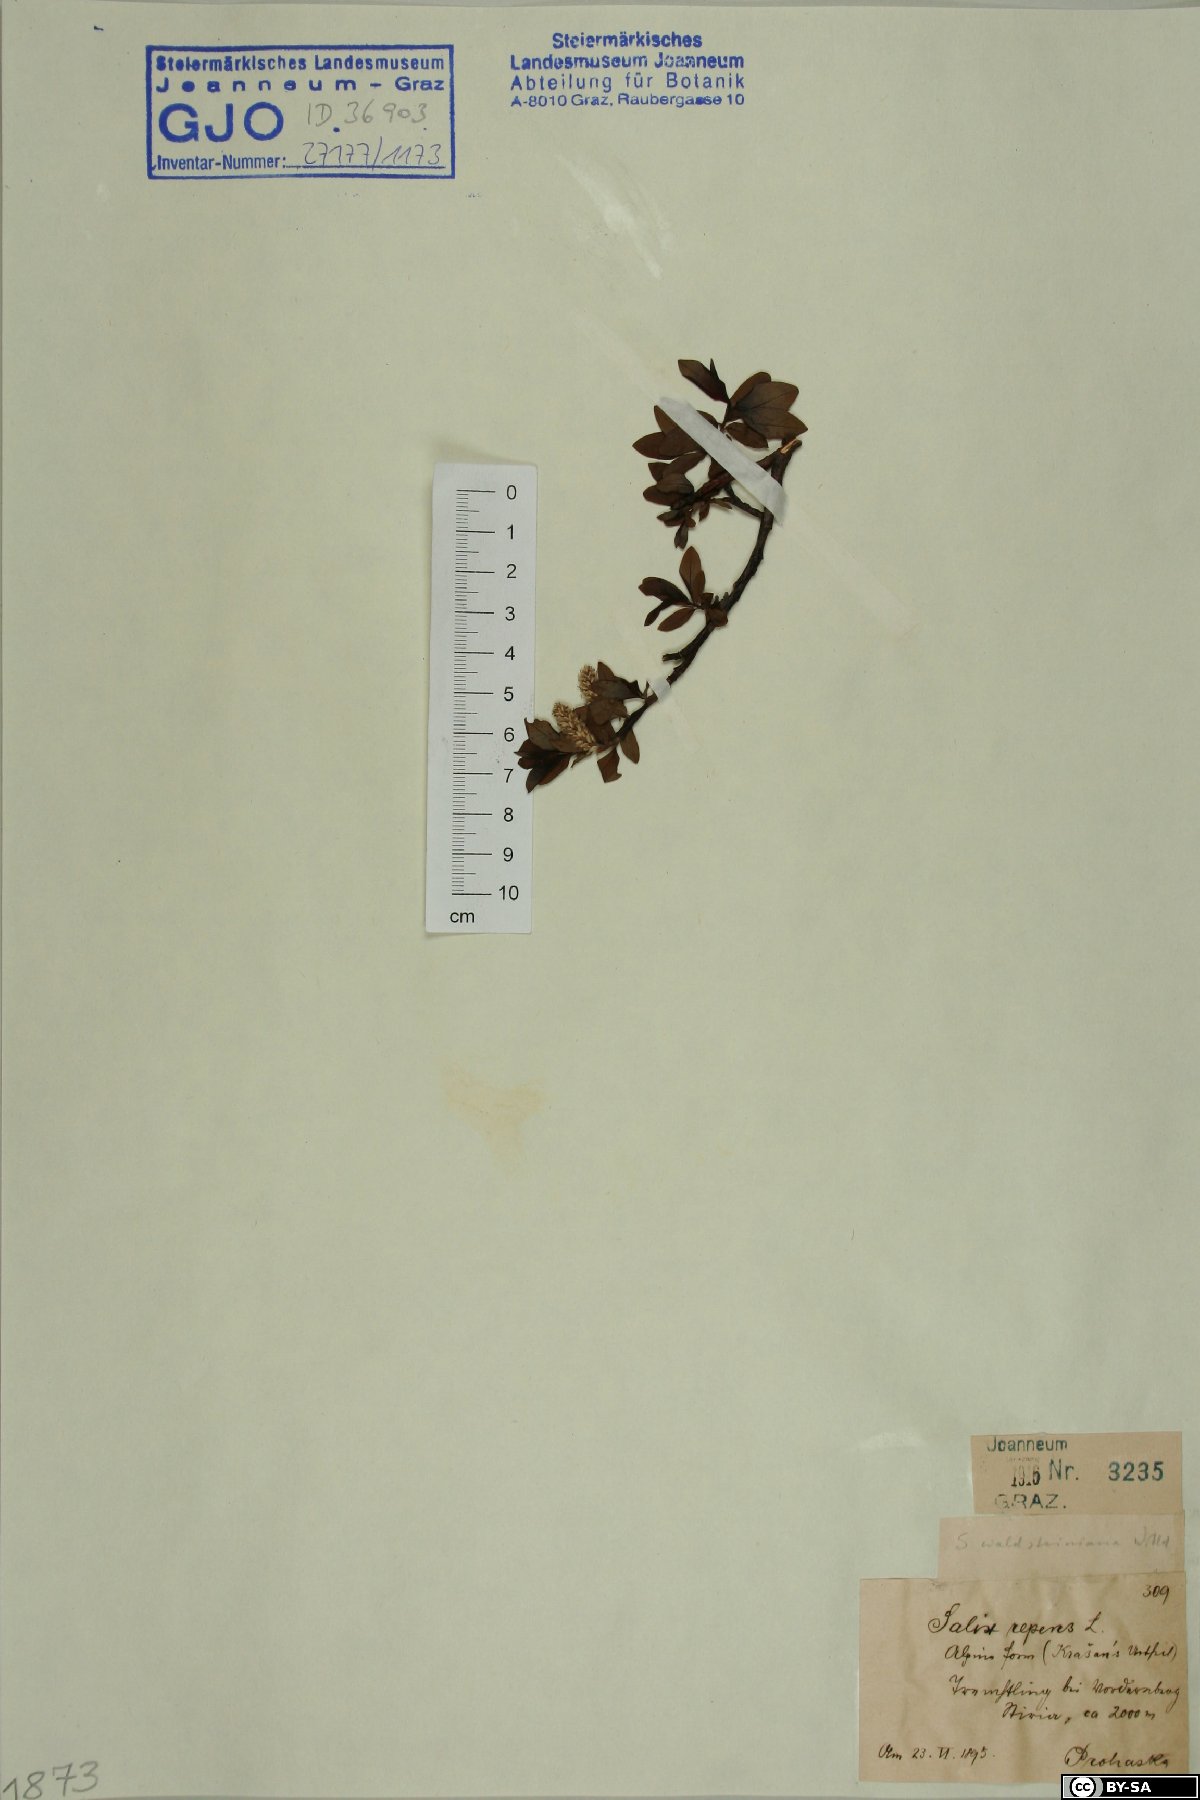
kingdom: Plantae
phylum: Tracheophyta
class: Magnoliopsida
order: Malpighiales
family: Salicaceae
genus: Salix
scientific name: Salix waldsteiniana
